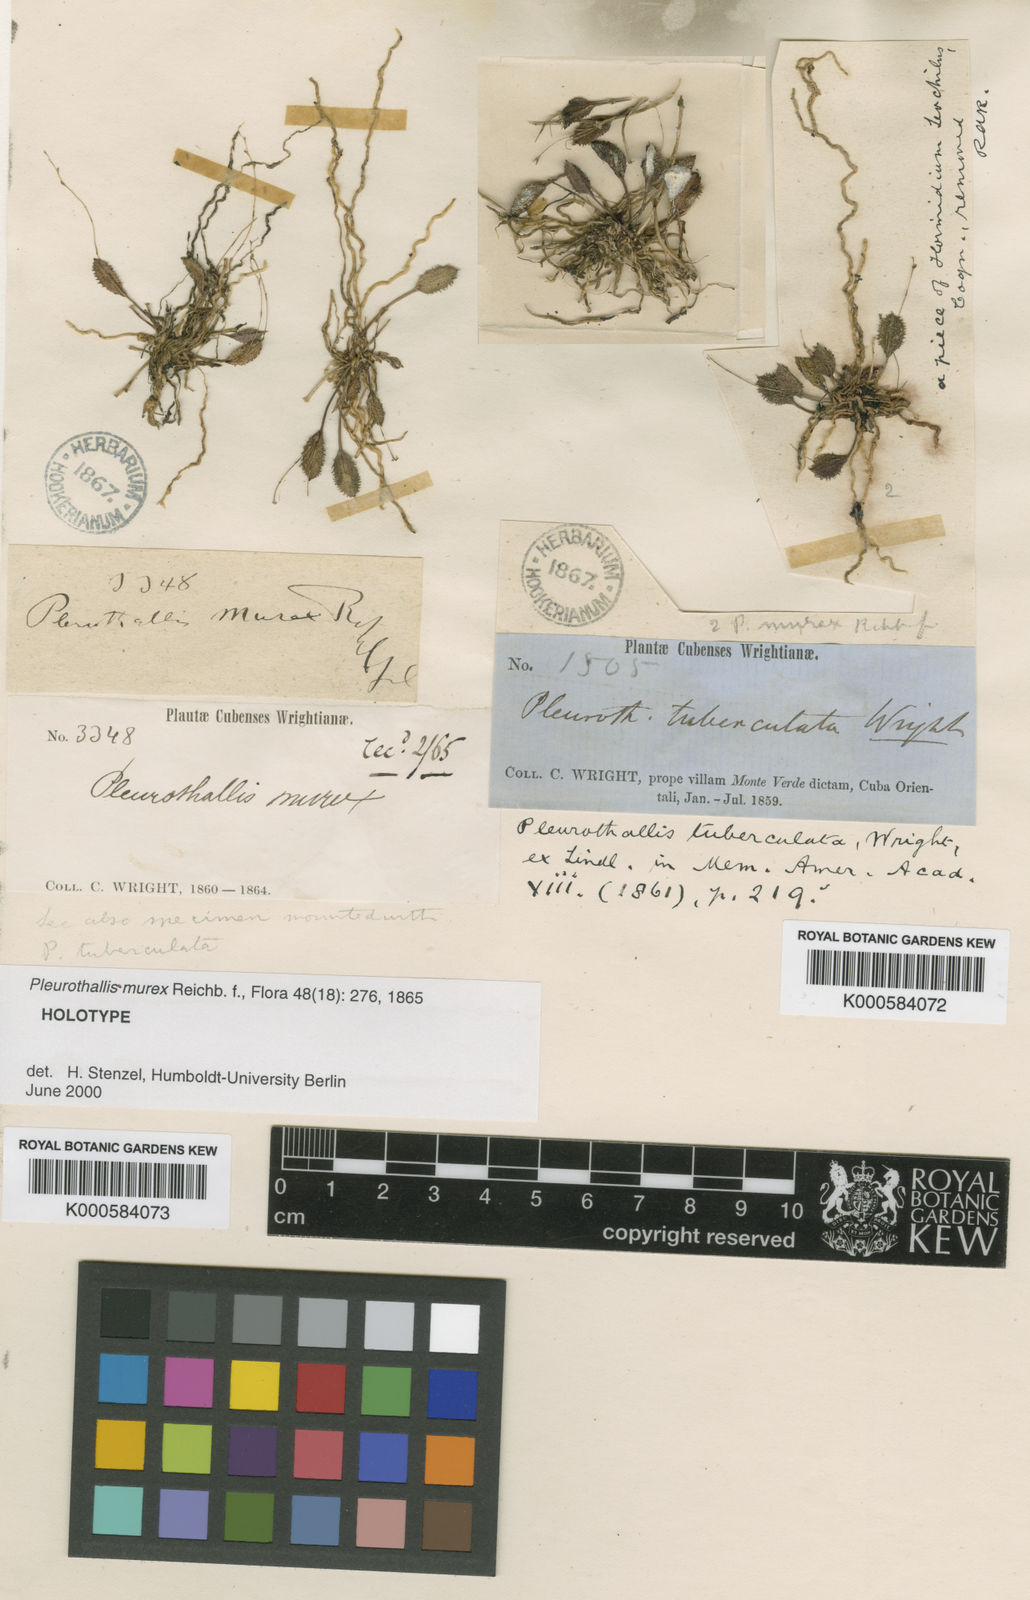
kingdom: Plantae
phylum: Tracheophyta
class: Liliopsida
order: Asparagales
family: Orchidaceae
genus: Acianthera
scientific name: Acianthera murex
